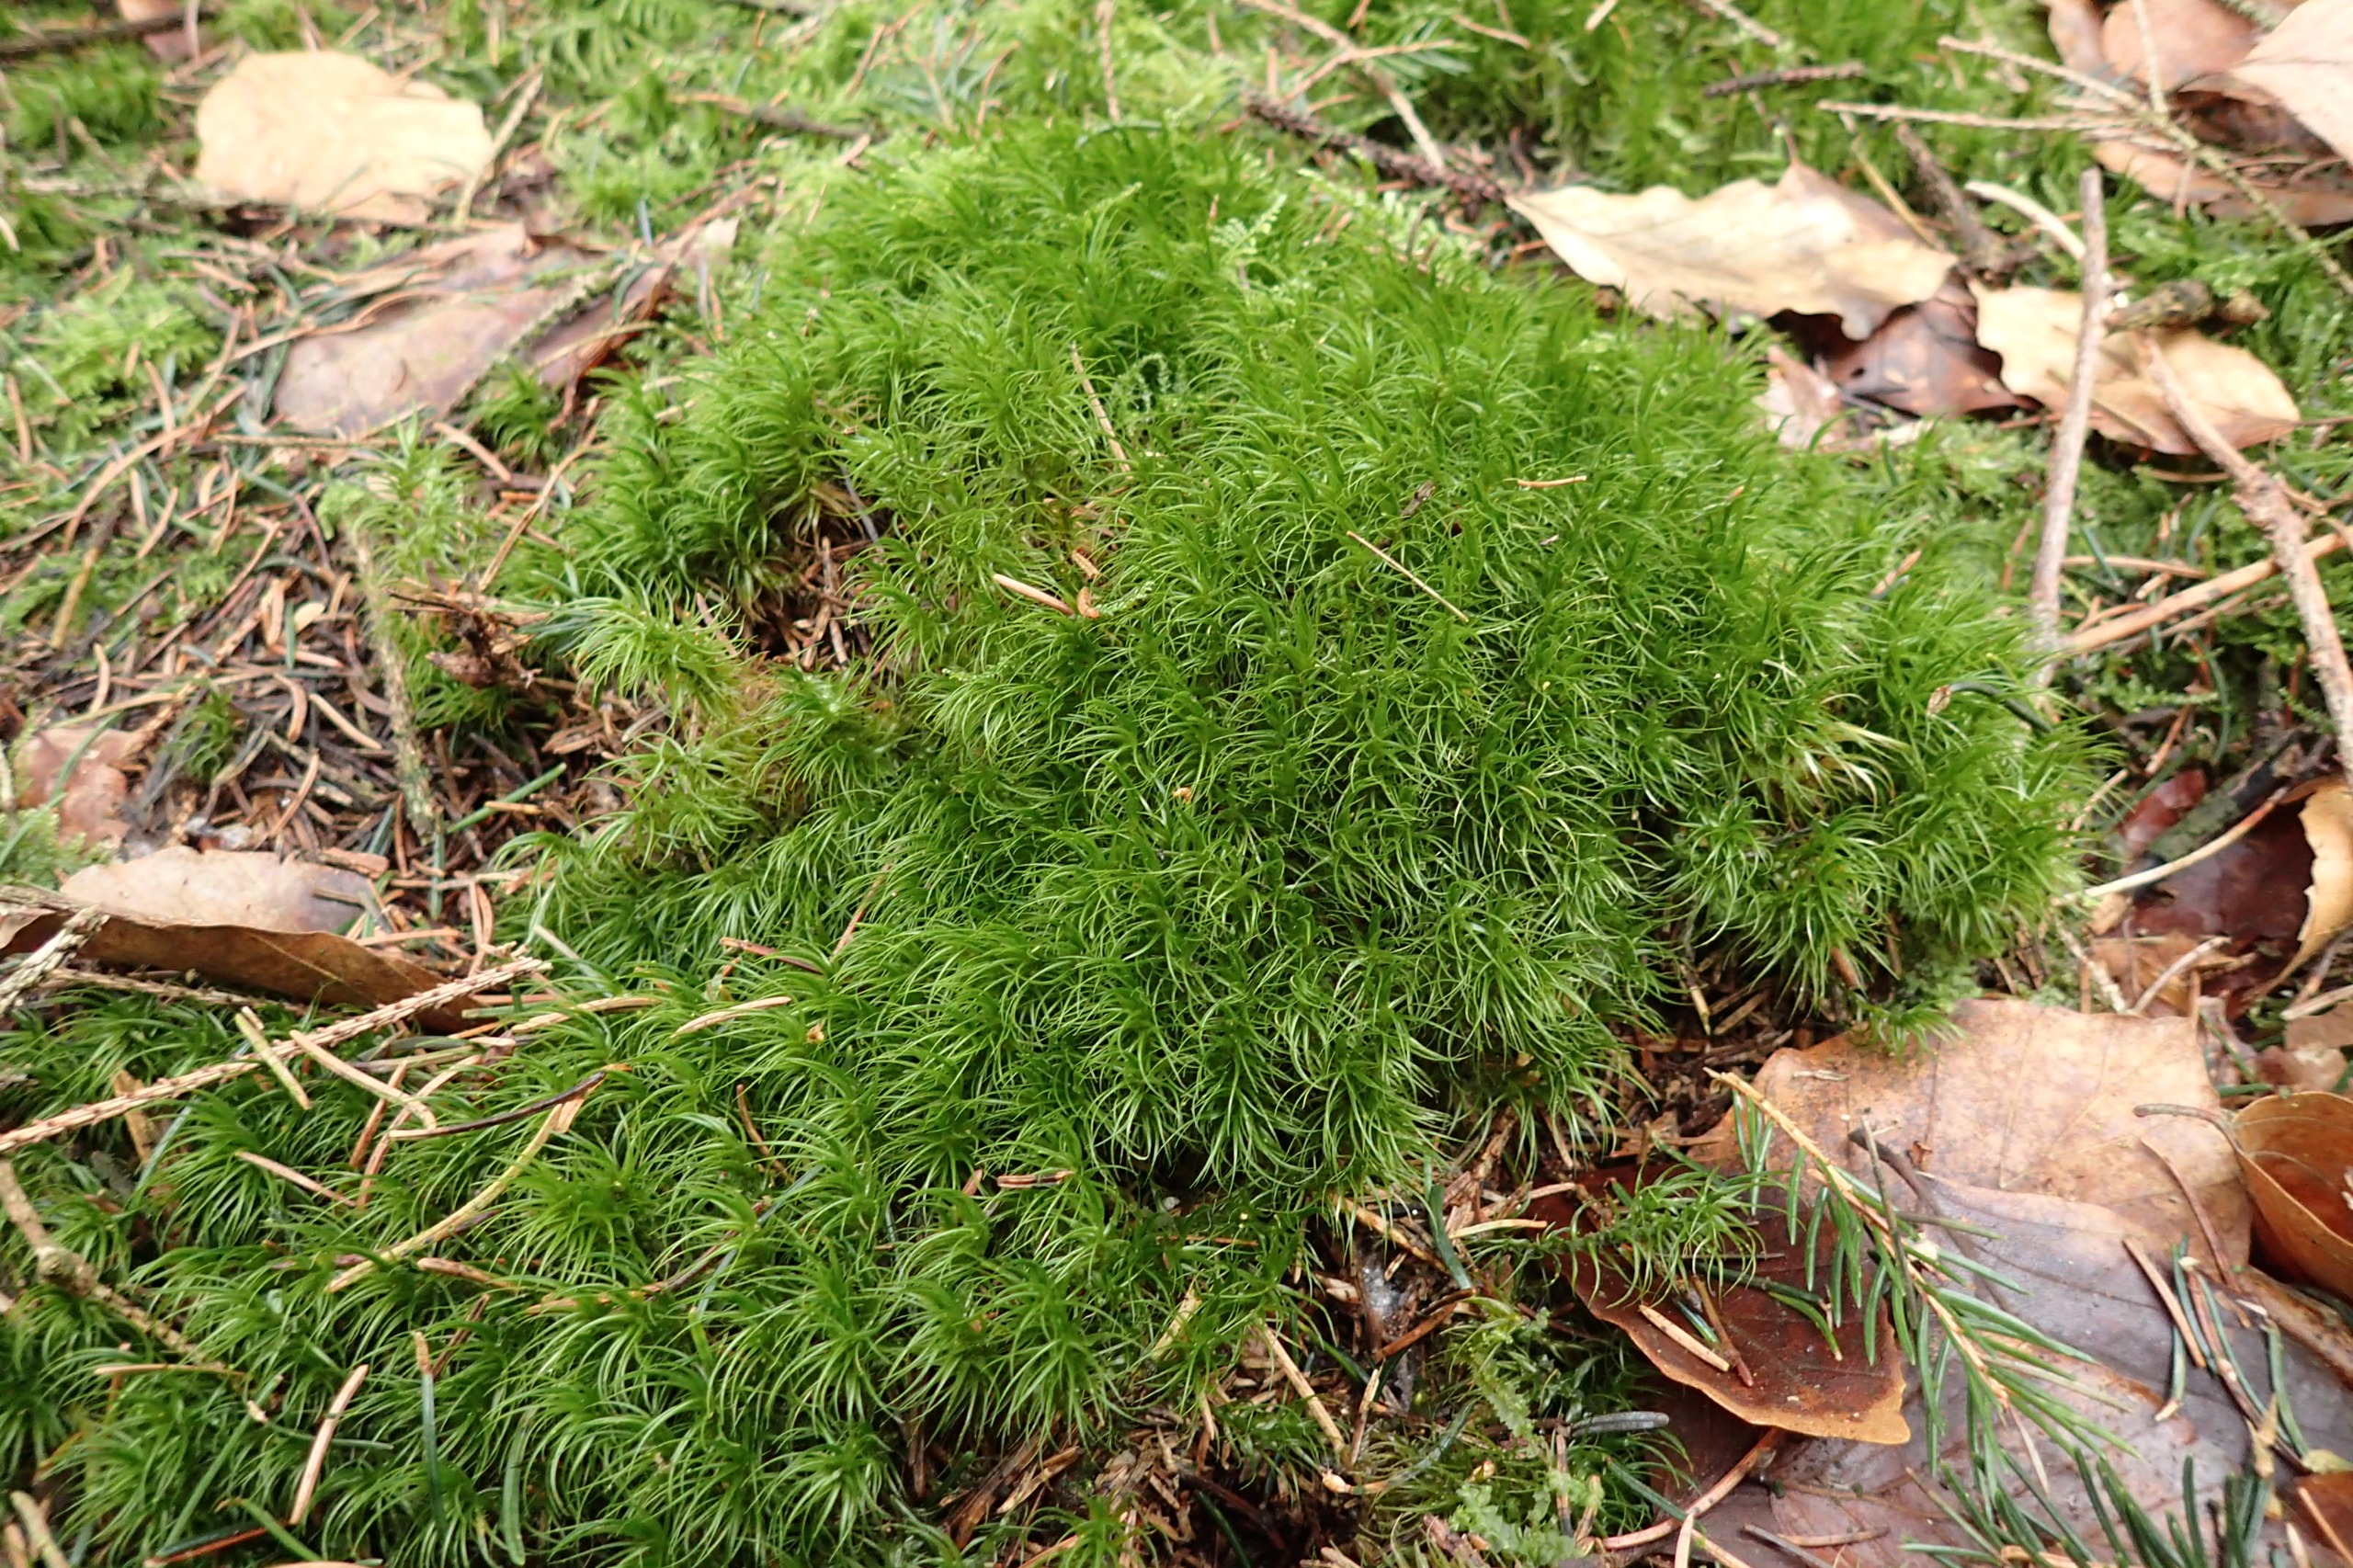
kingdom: Plantae
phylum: Bryophyta
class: Bryopsida
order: Dicranales
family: Dicranaceae
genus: Dicranum
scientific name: Dicranum majus
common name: Stor kløvtand
